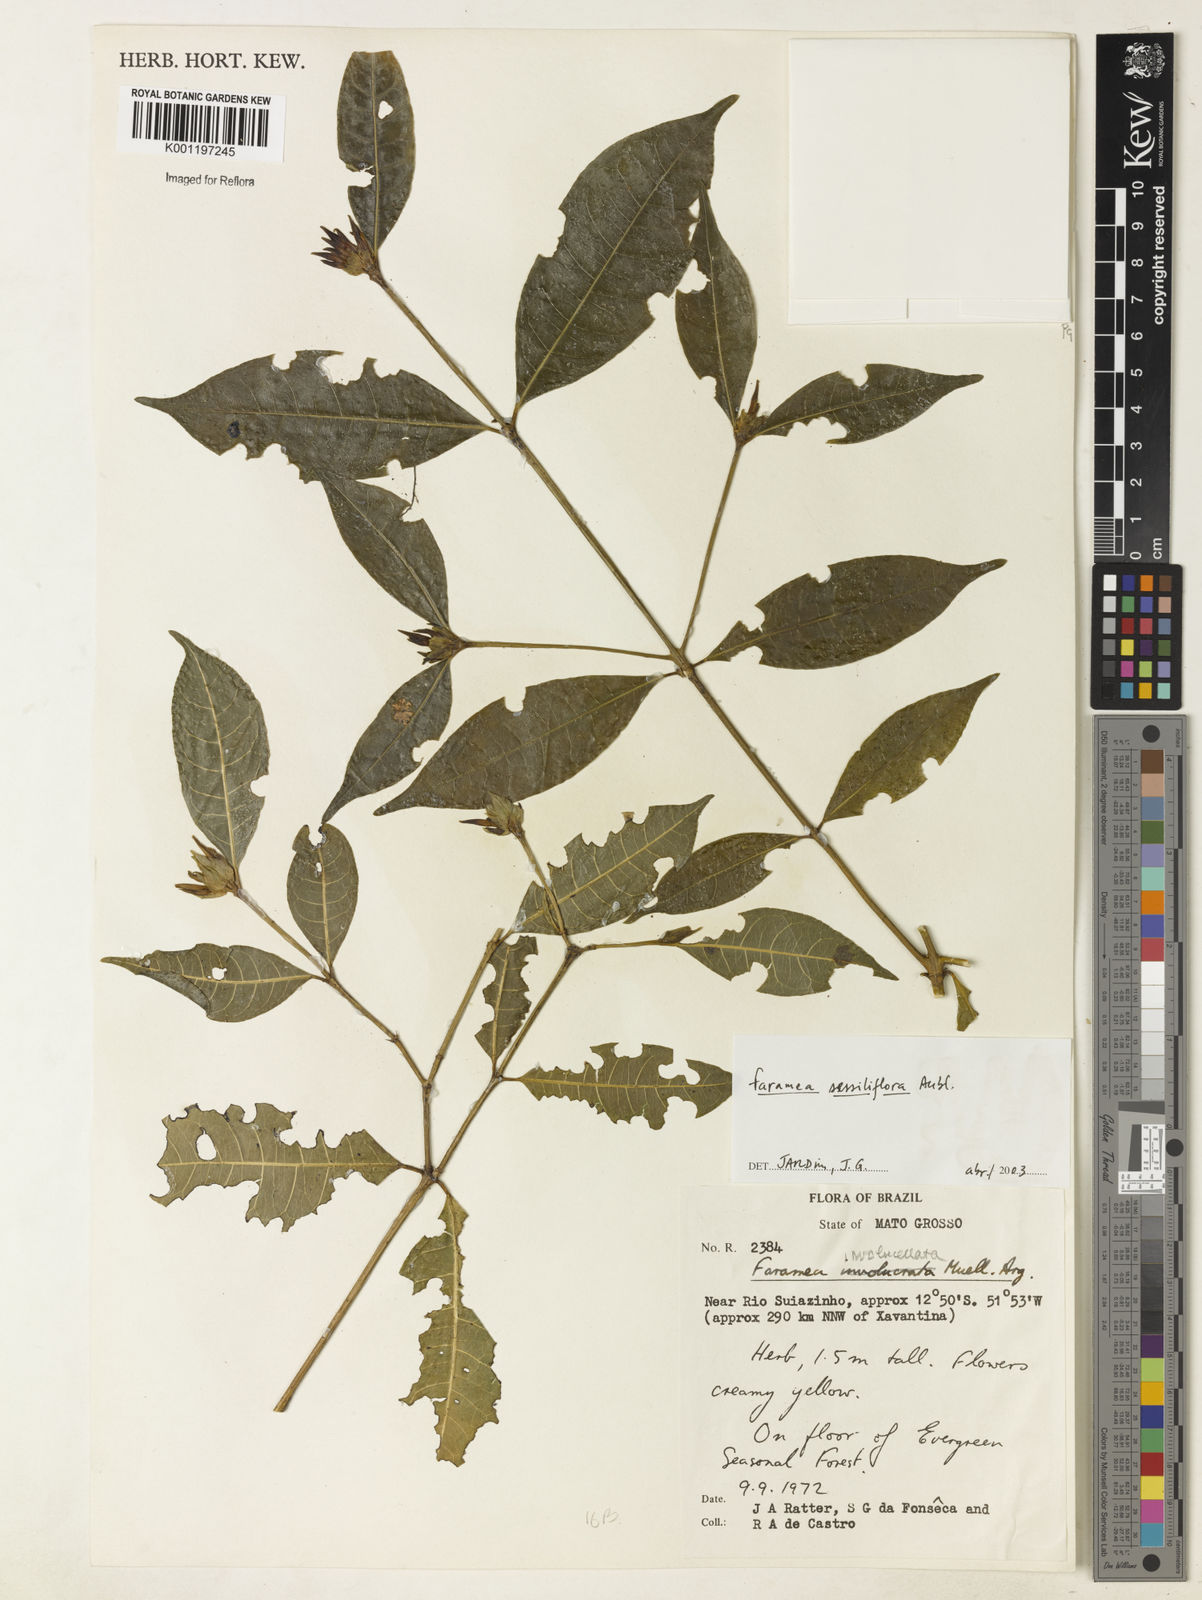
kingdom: Plantae
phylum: Tracheophyta
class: Magnoliopsida
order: Gentianales
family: Rubiaceae
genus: Faramea
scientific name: Faramea sessilifolia
